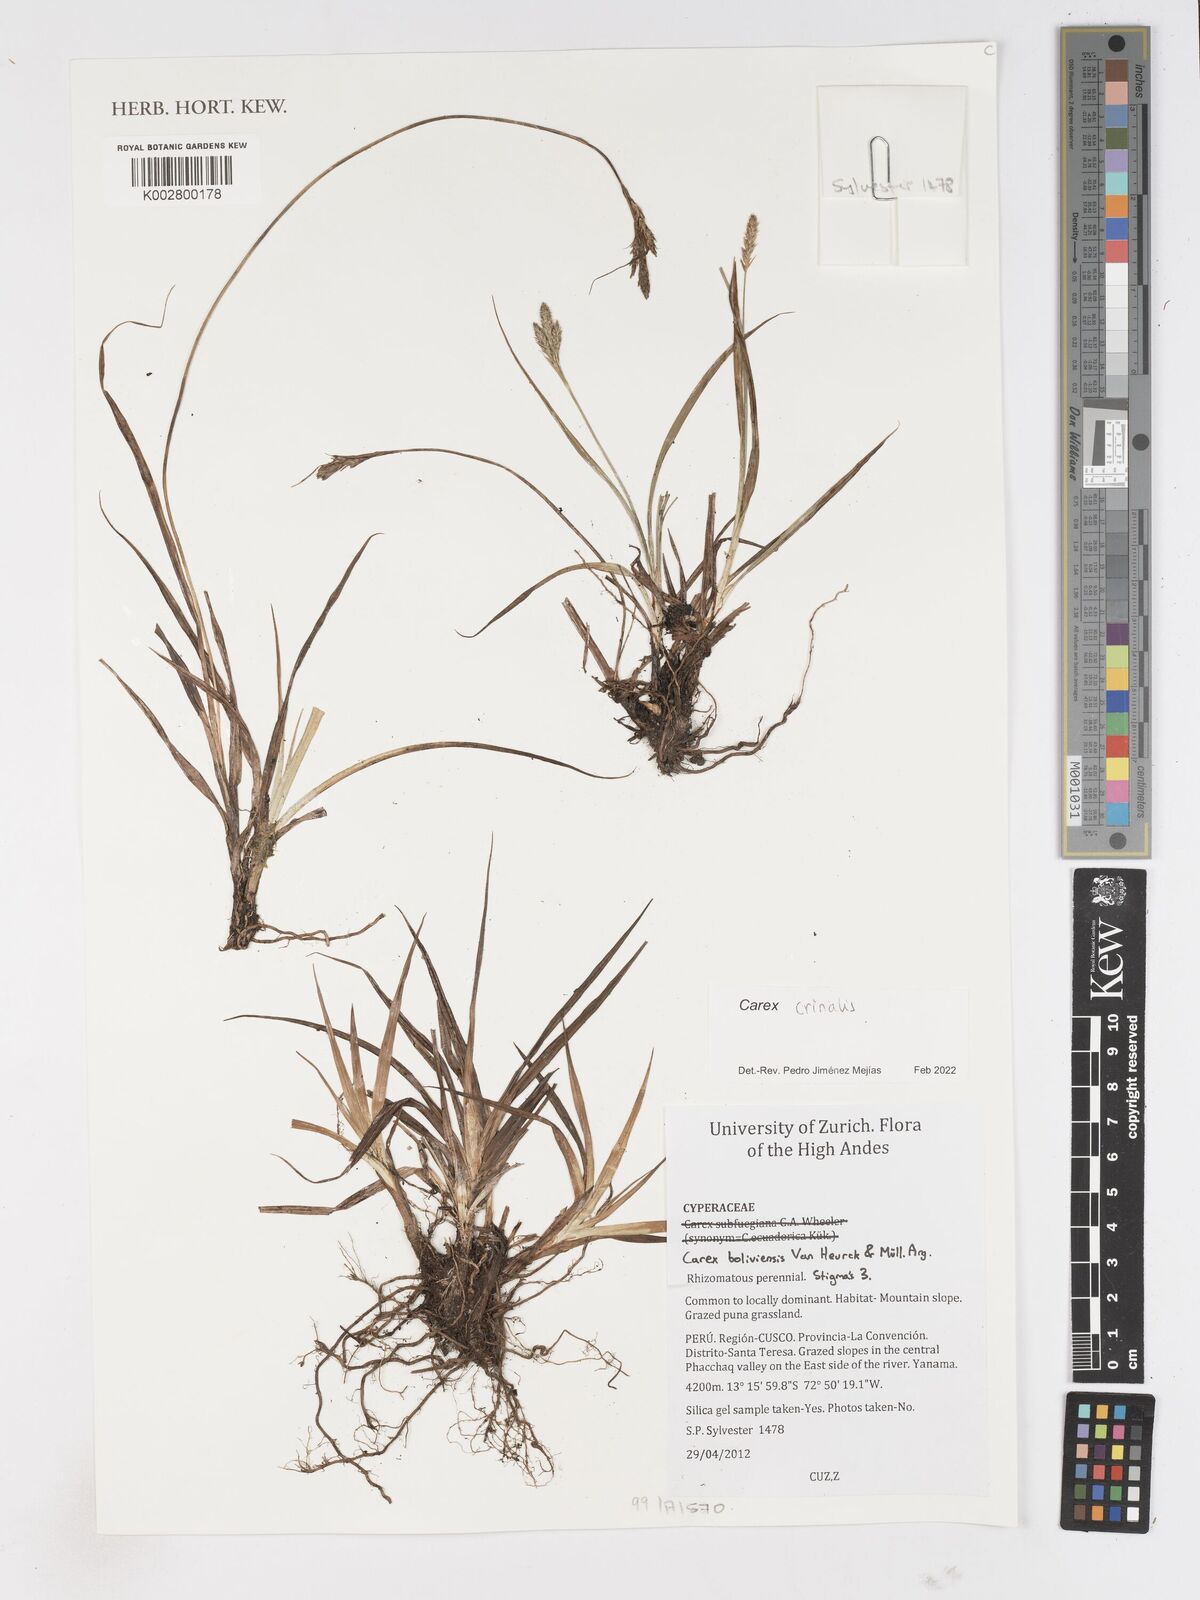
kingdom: Plantae
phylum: Tracheophyta
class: Liliopsida
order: Poales
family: Cyperaceae
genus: Carex
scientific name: Carex crinalis
